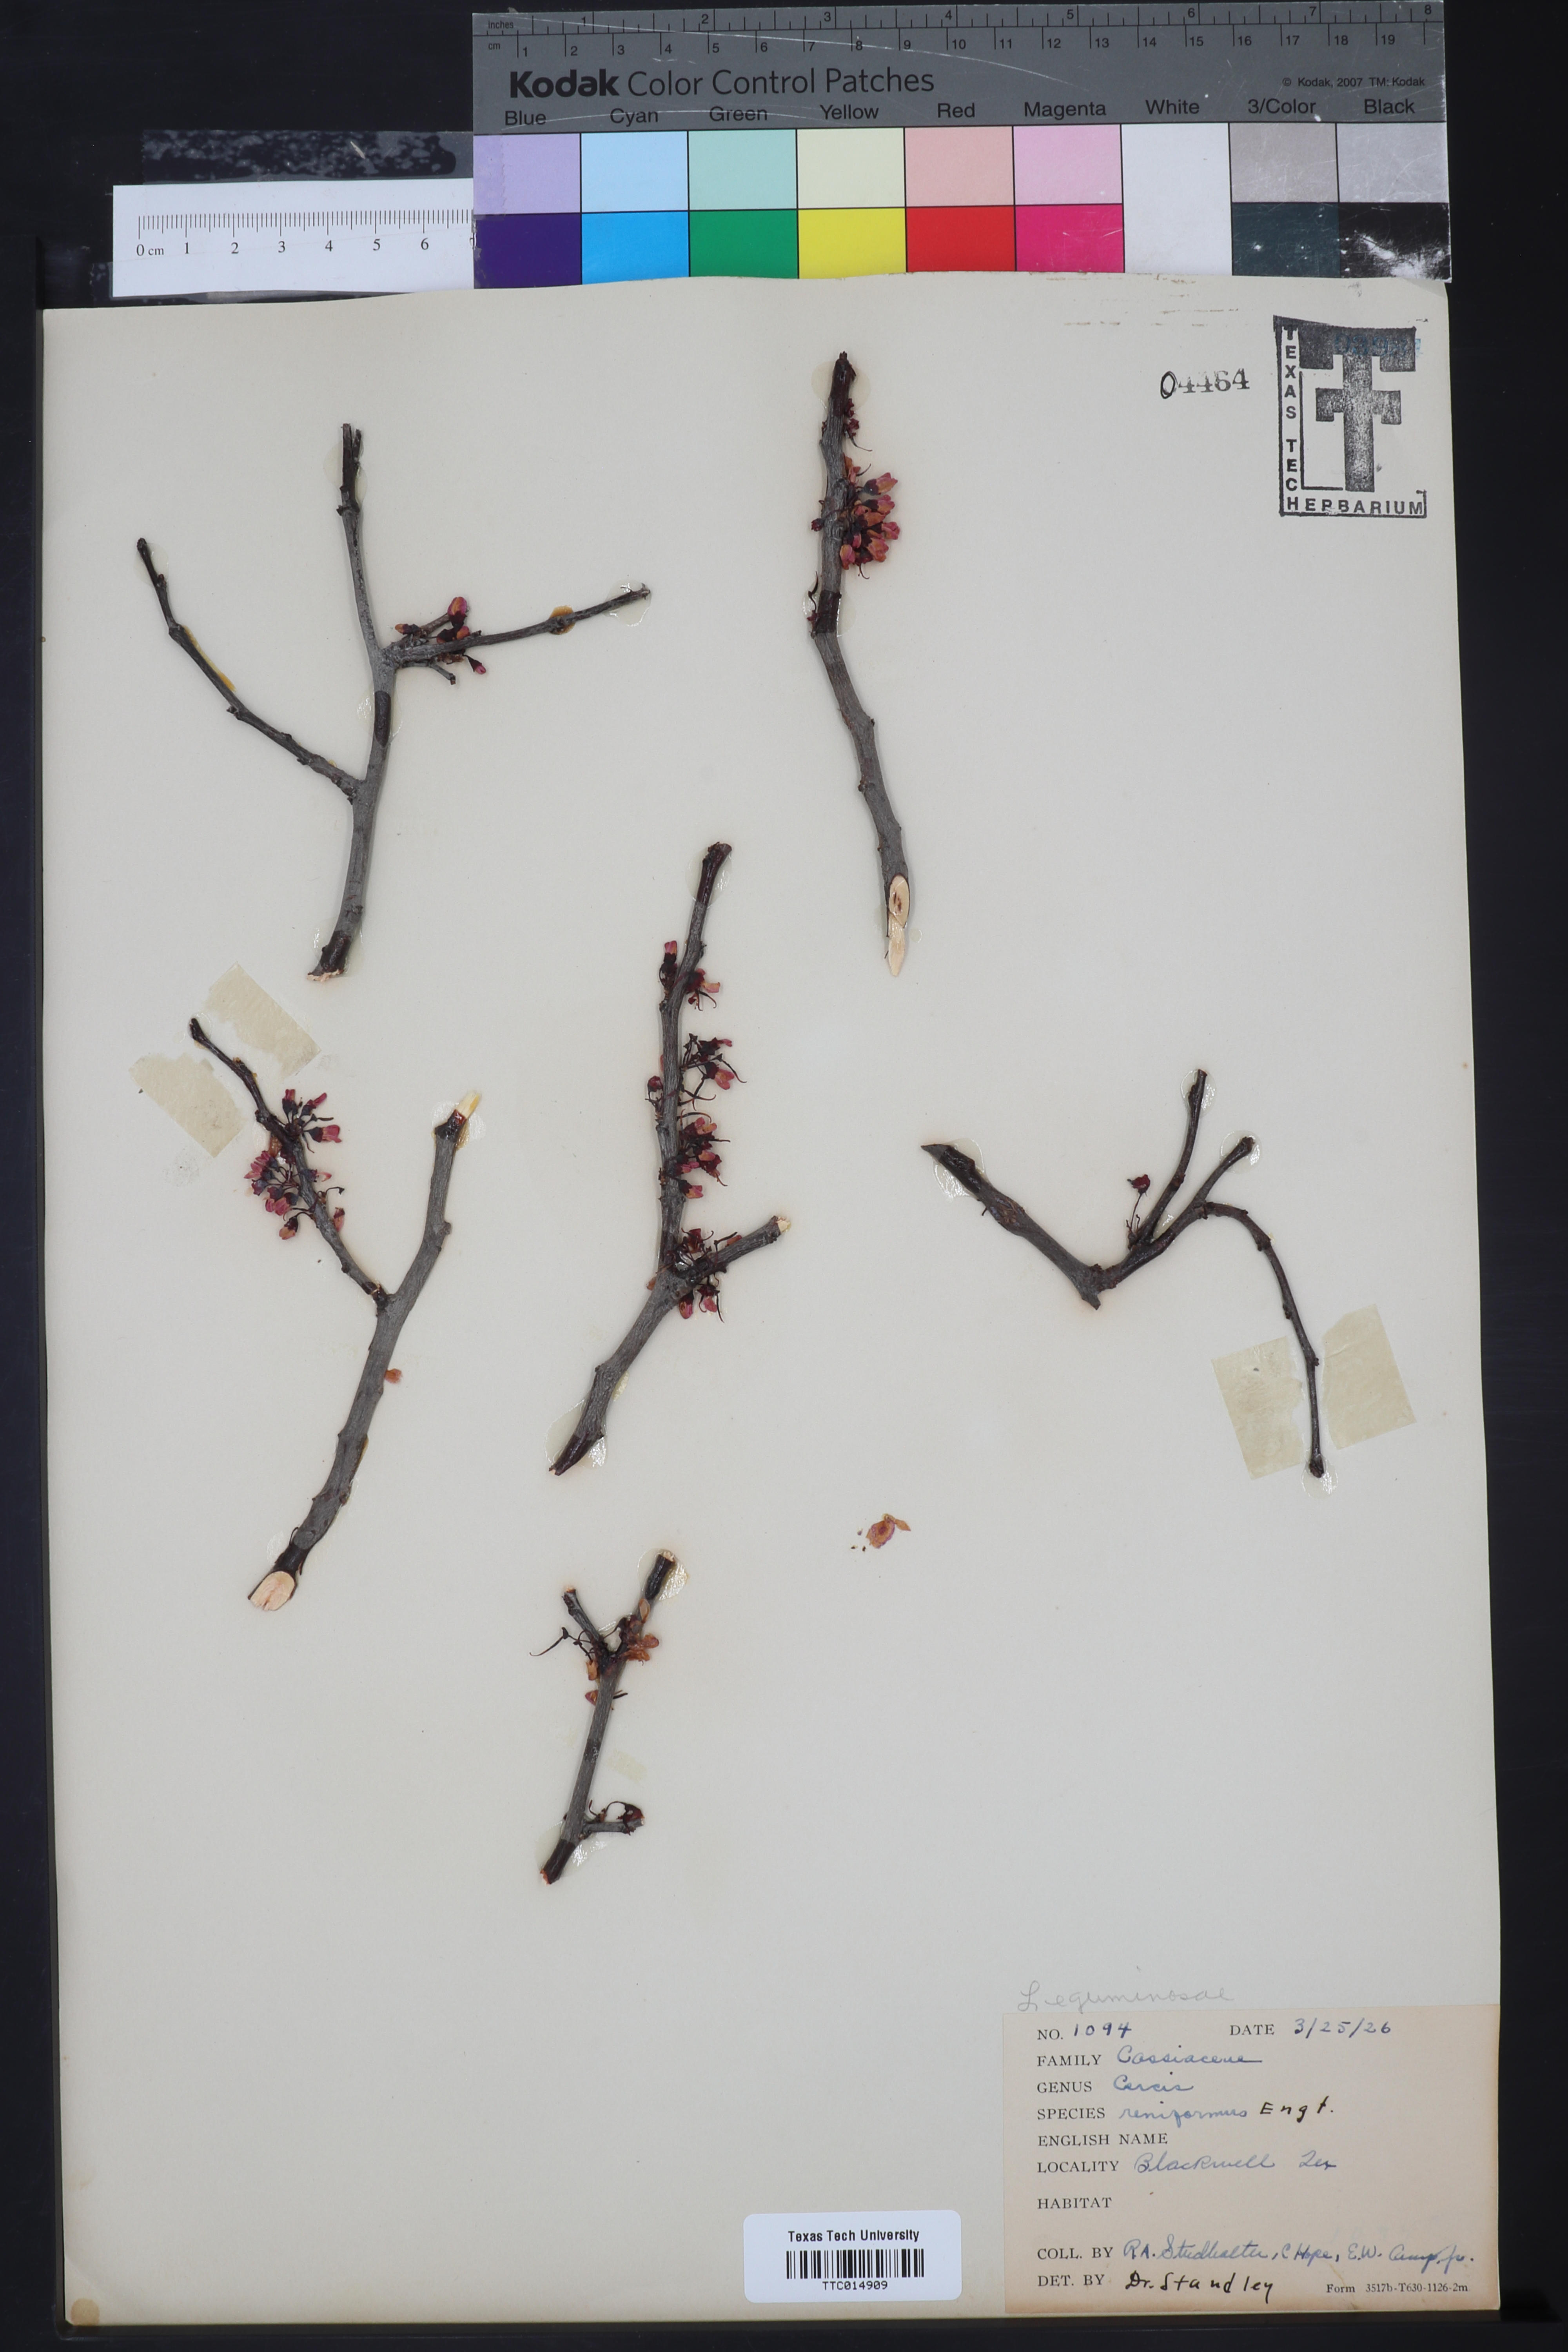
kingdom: Plantae
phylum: Tracheophyta
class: Magnoliopsida
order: Fabales
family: Fabaceae
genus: Cercis
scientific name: Cercis canadensis
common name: Eastern redbud
